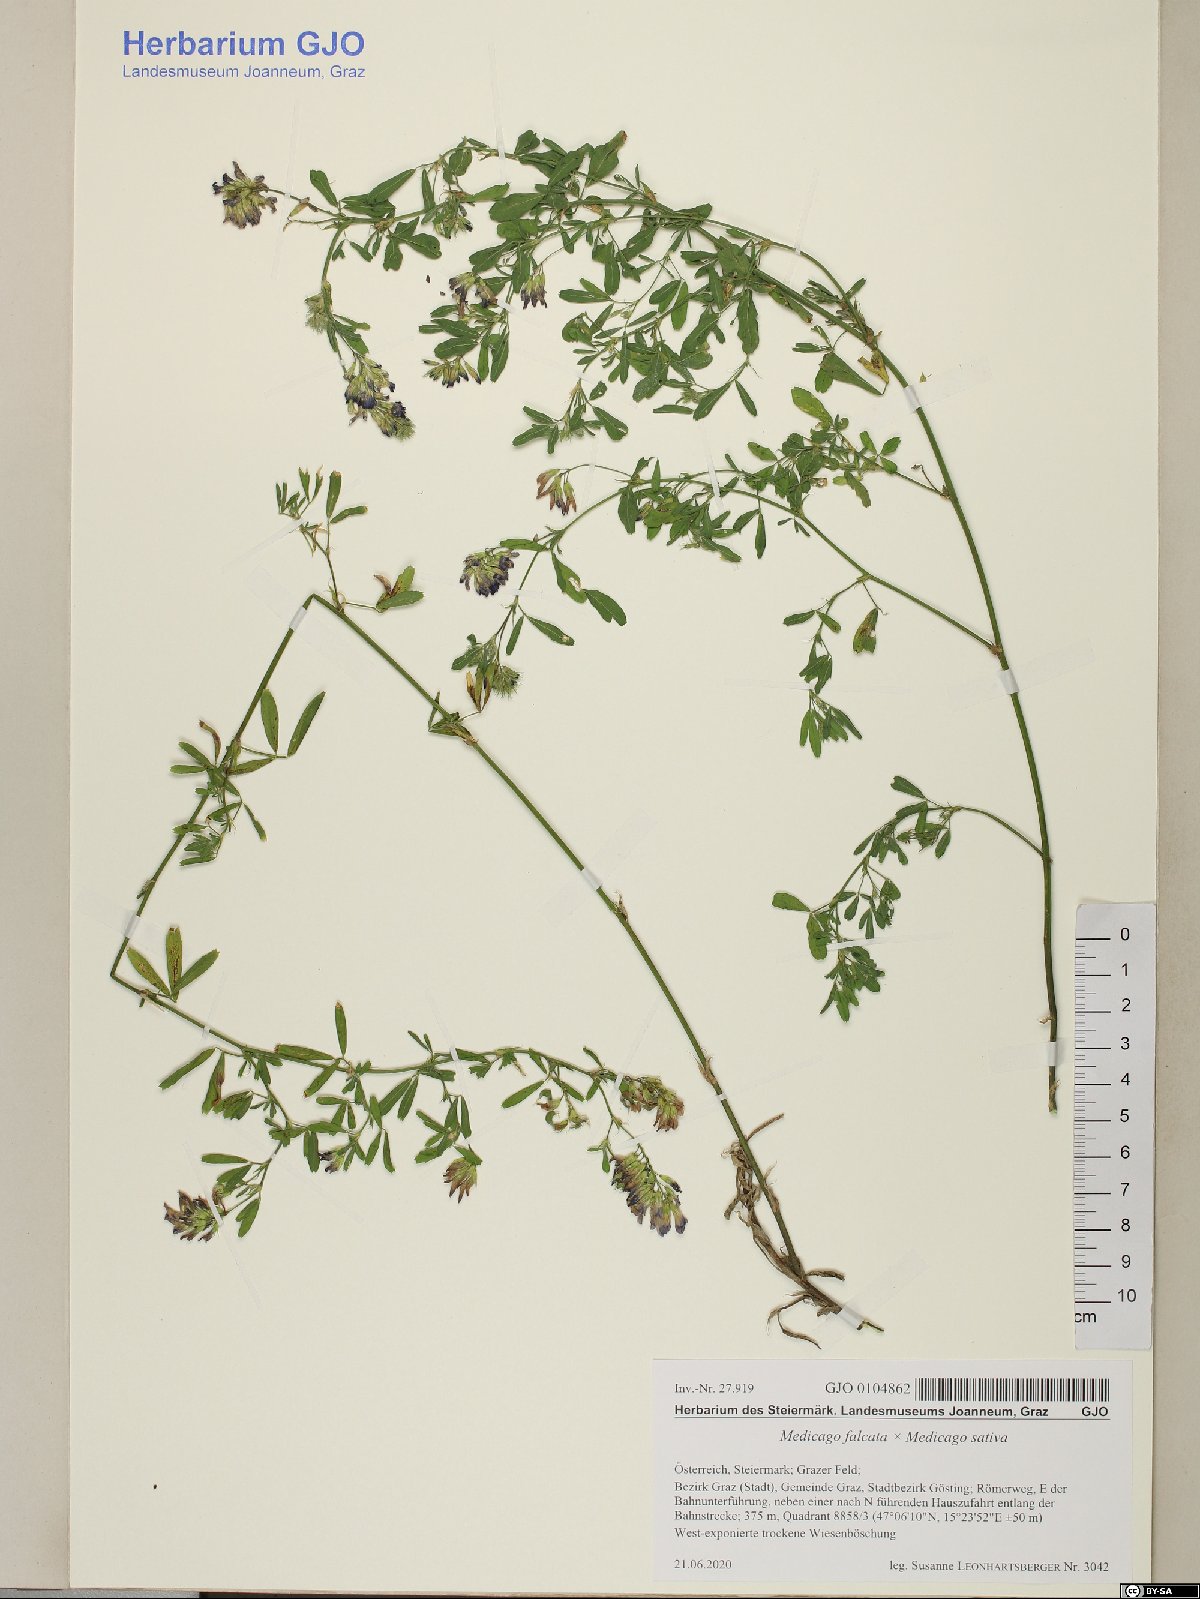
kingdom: Plantae
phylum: Tracheophyta
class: Magnoliopsida
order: Fabales
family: Fabaceae
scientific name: Fabaceae
